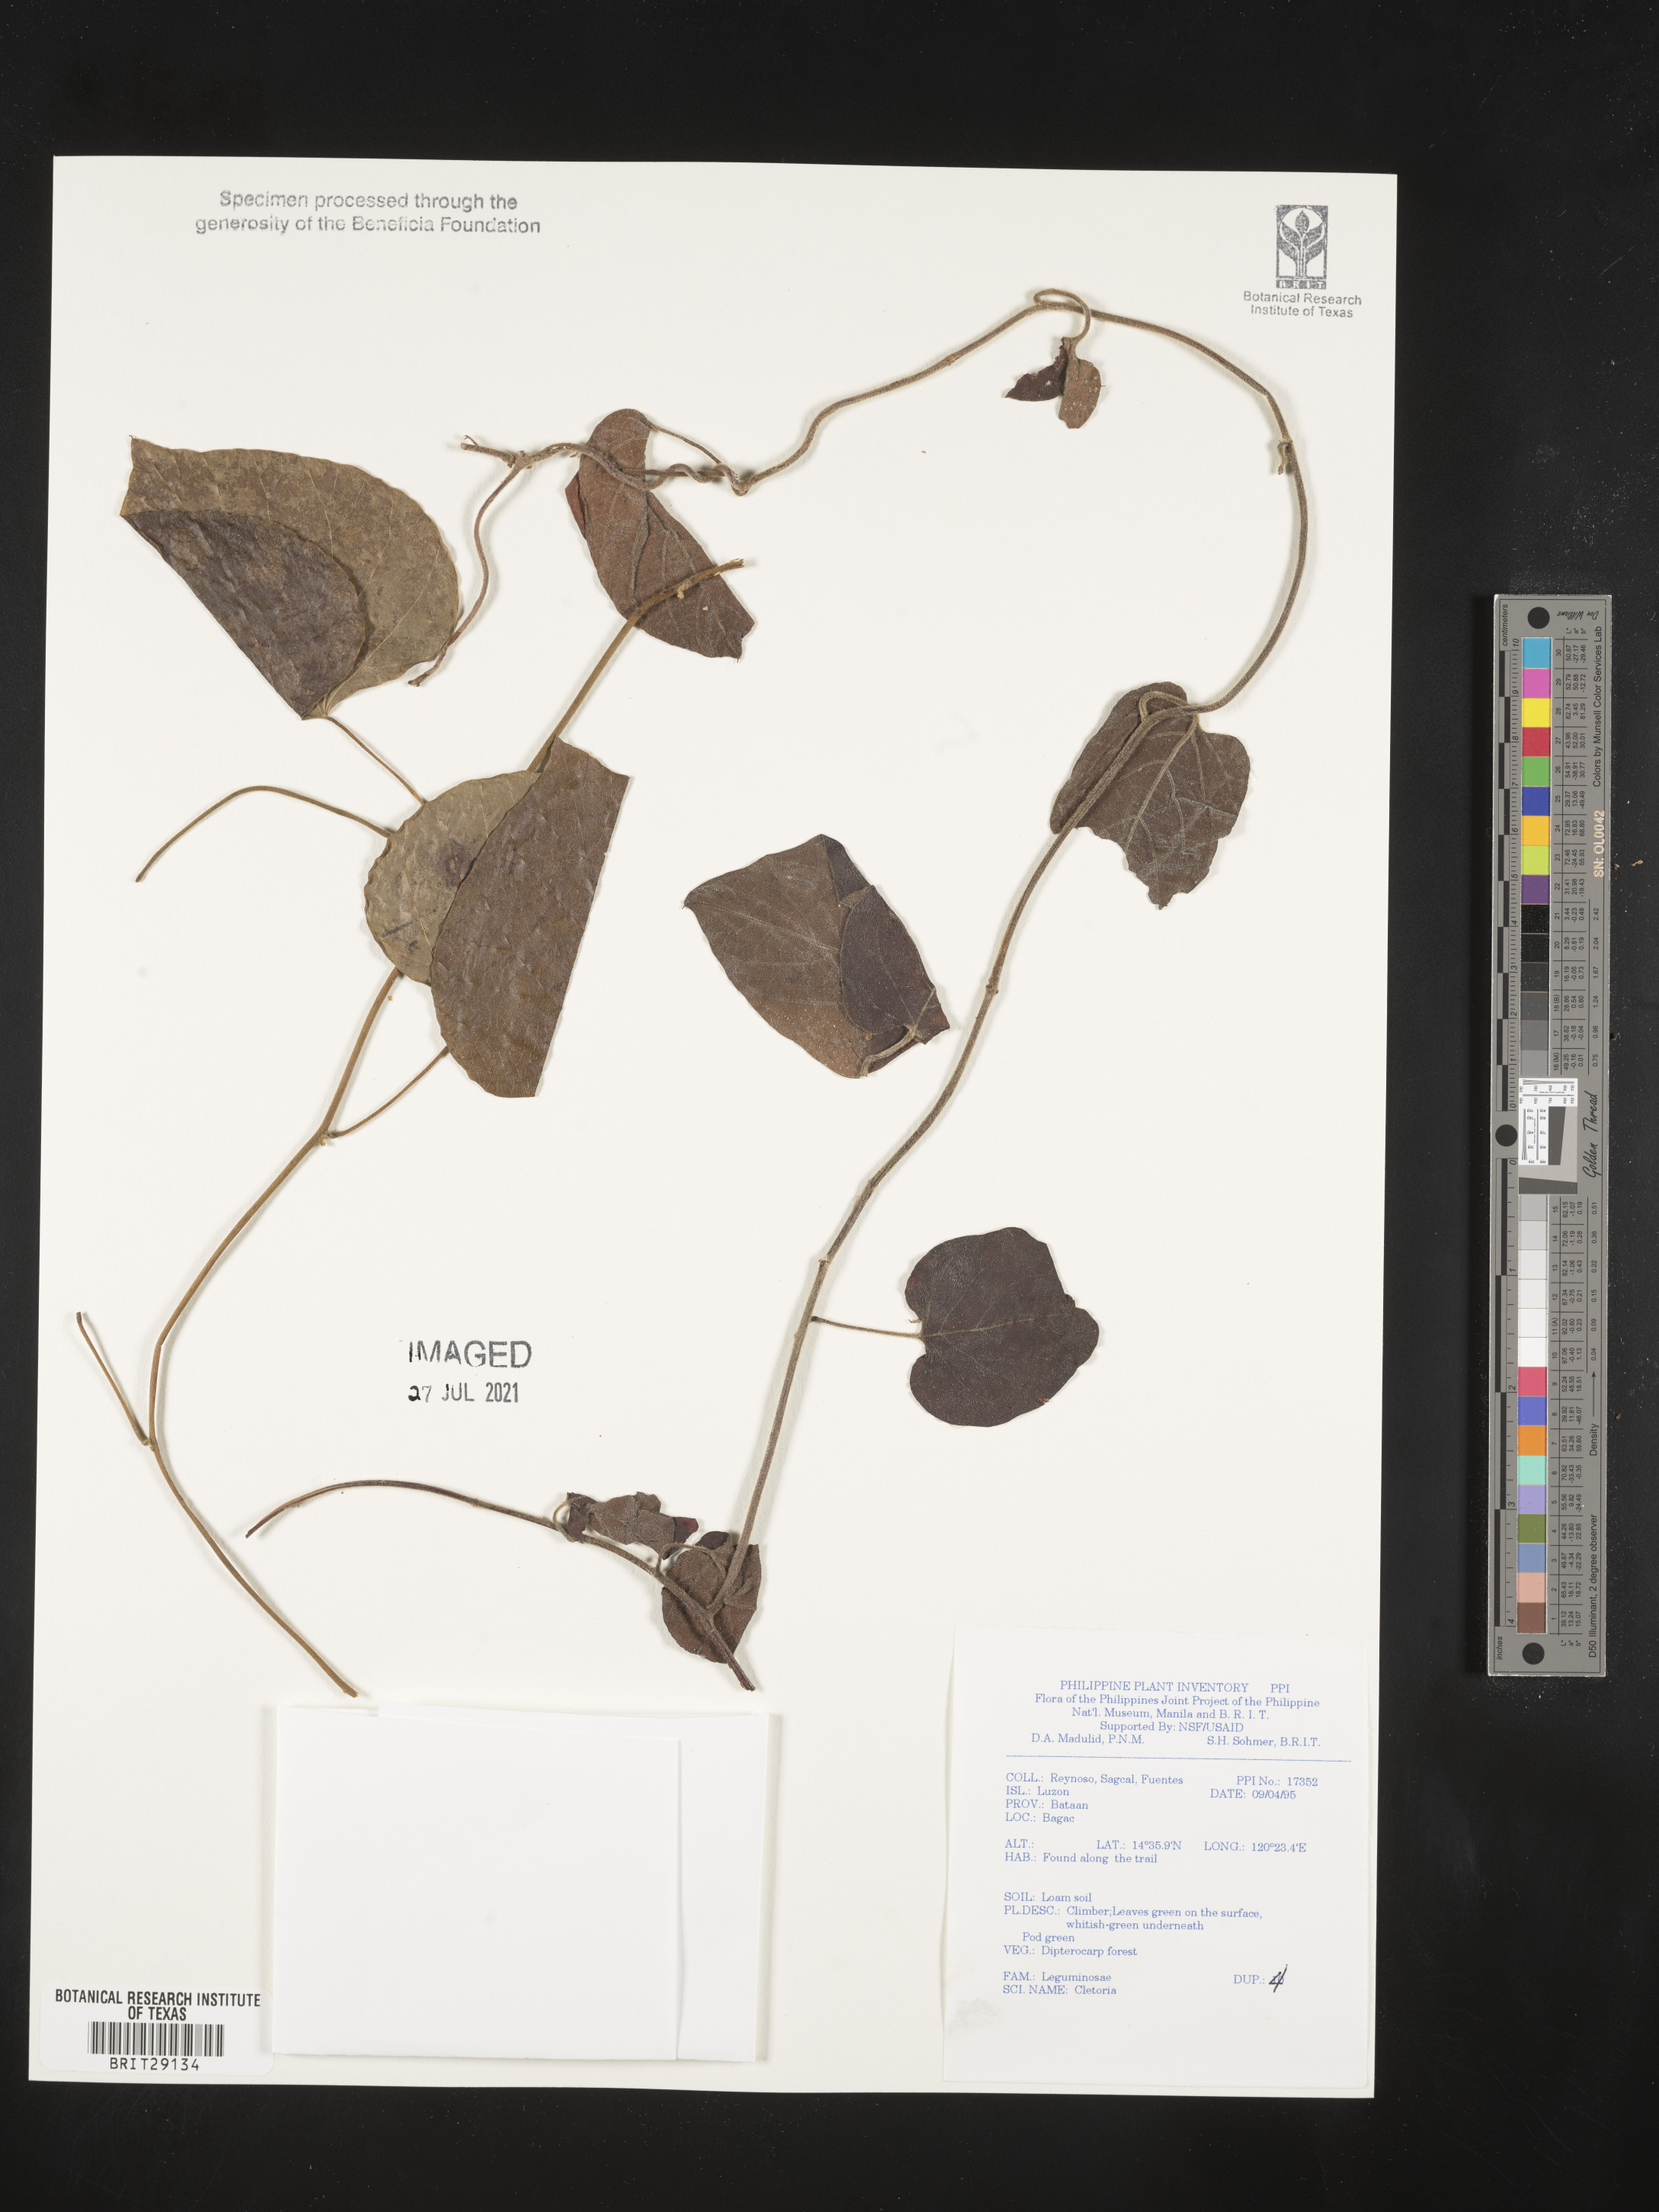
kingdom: Plantae
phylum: Tracheophyta
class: Magnoliopsida
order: Fabales
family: Fabaceae
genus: Clitoria
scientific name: Clitoria
